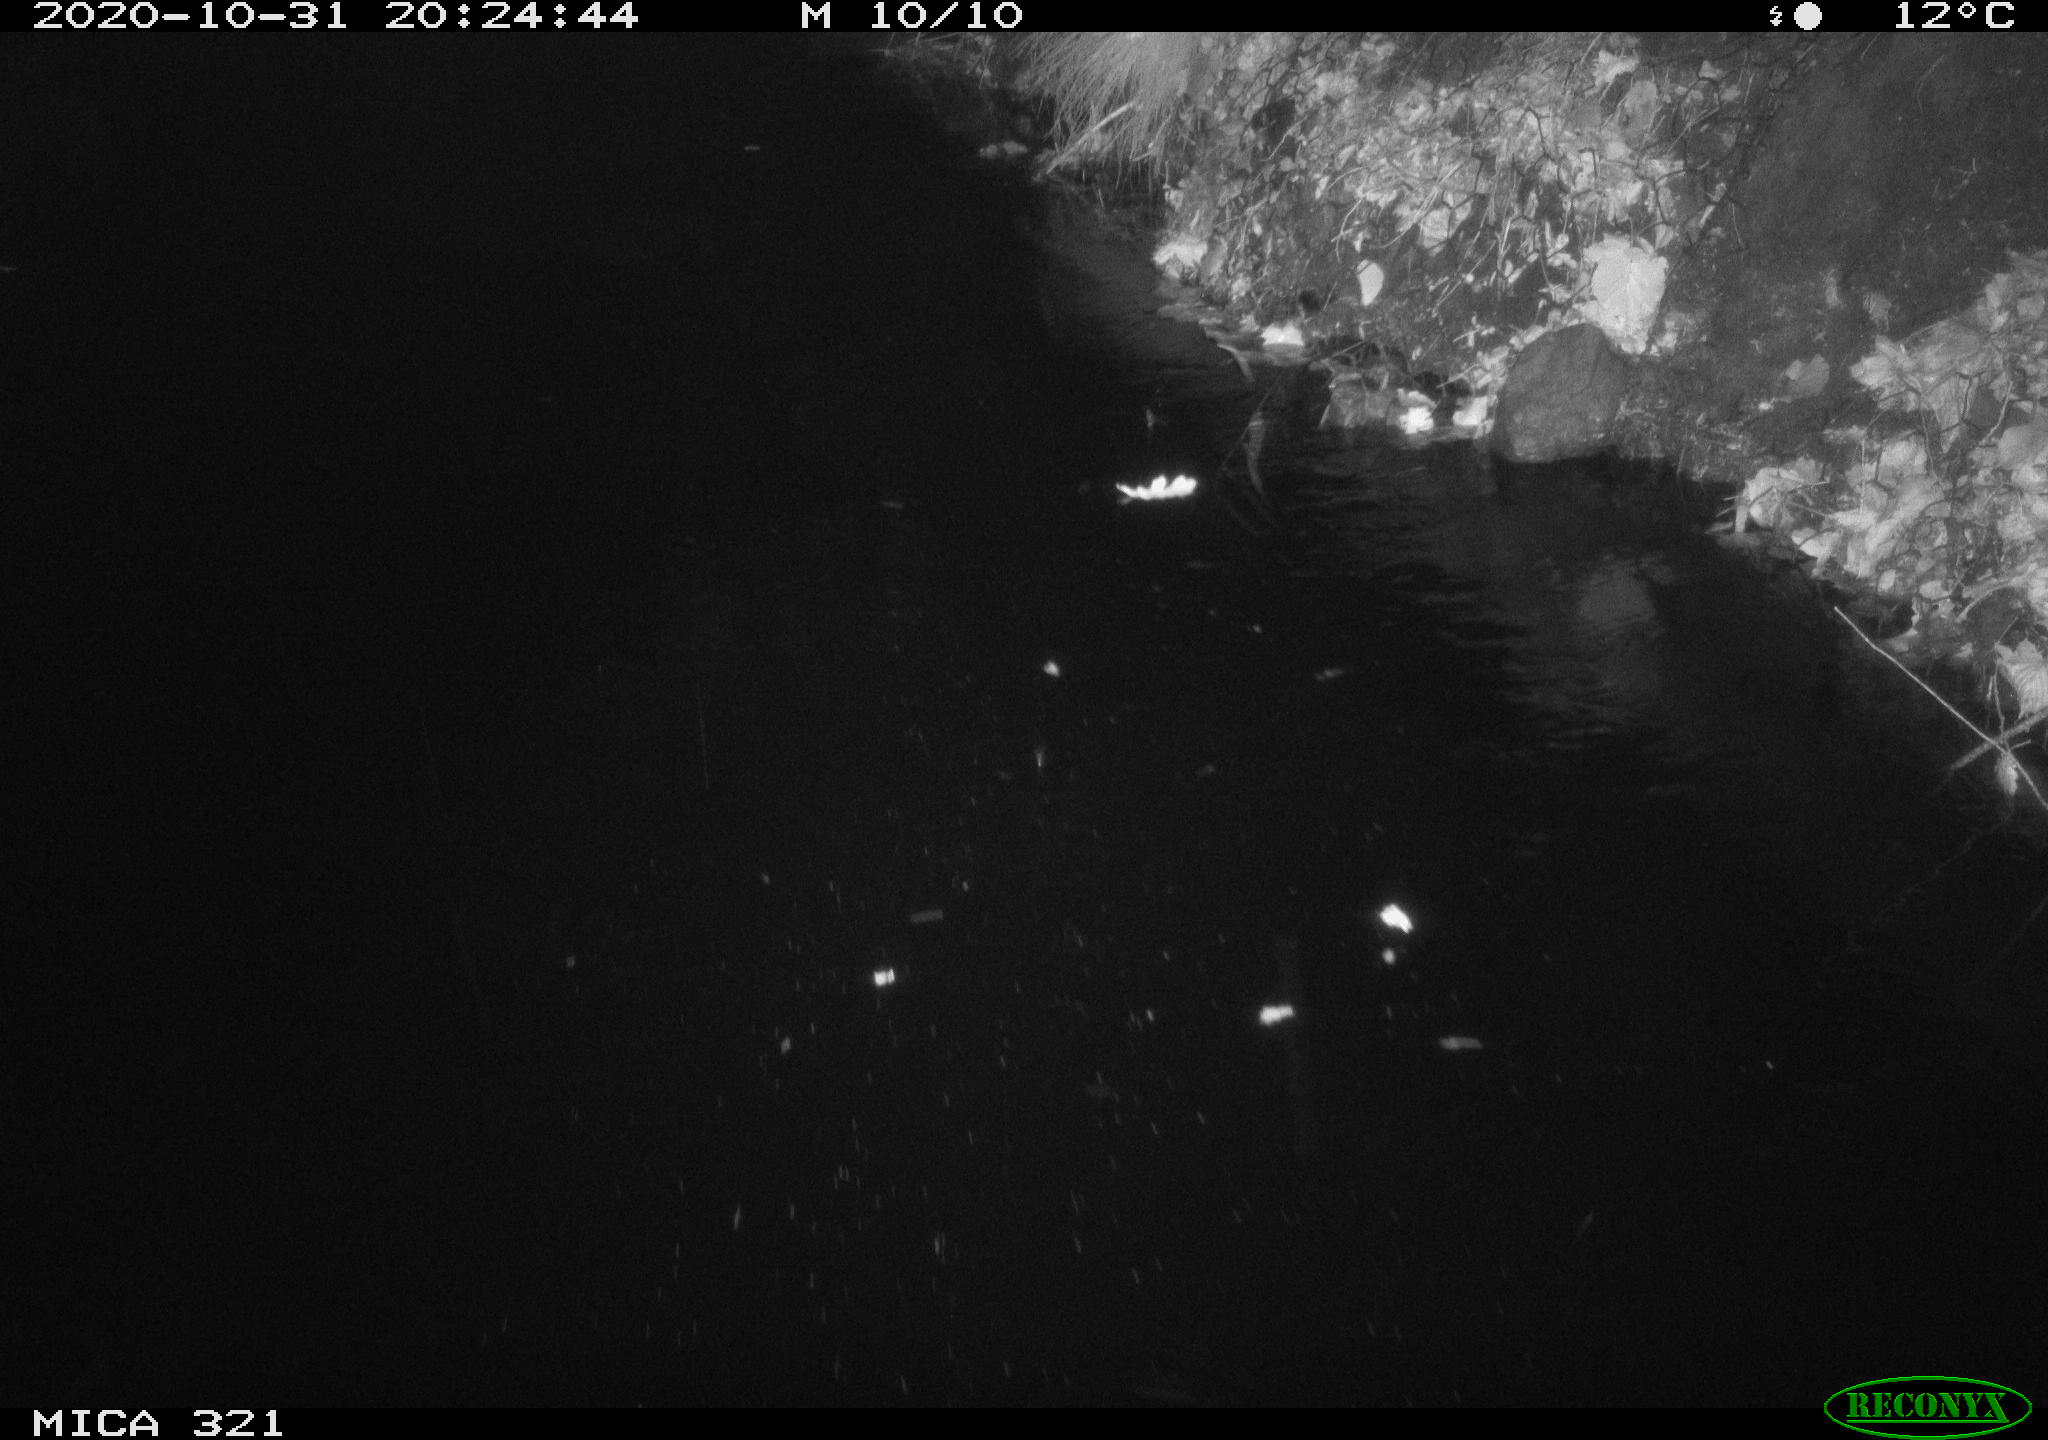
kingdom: Animalia
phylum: Chordata
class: Mammalia
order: Rodentia
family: Muridae
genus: Rattus
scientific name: Rattus norvegicus
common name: Brown rat
